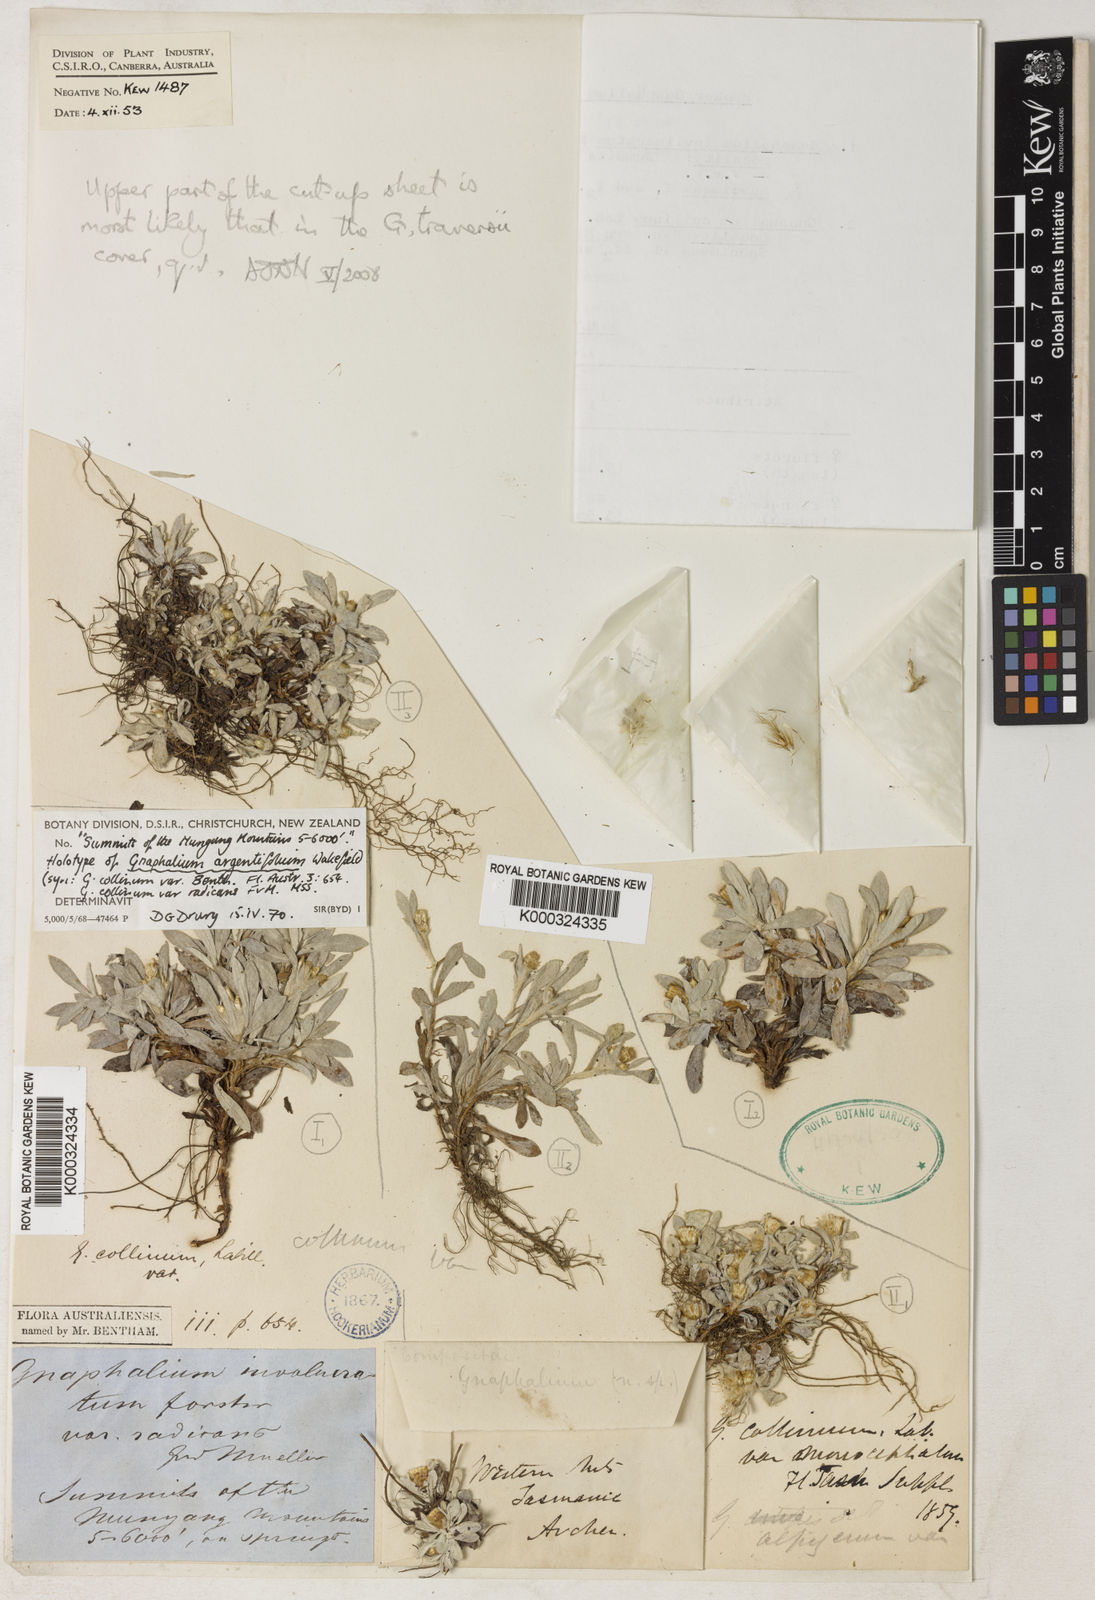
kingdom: Plantae
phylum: Tracheophyta
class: Magnoliopsida
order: Asterales
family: Asteraceae
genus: Euchiton
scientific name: Euchiton involucratus
